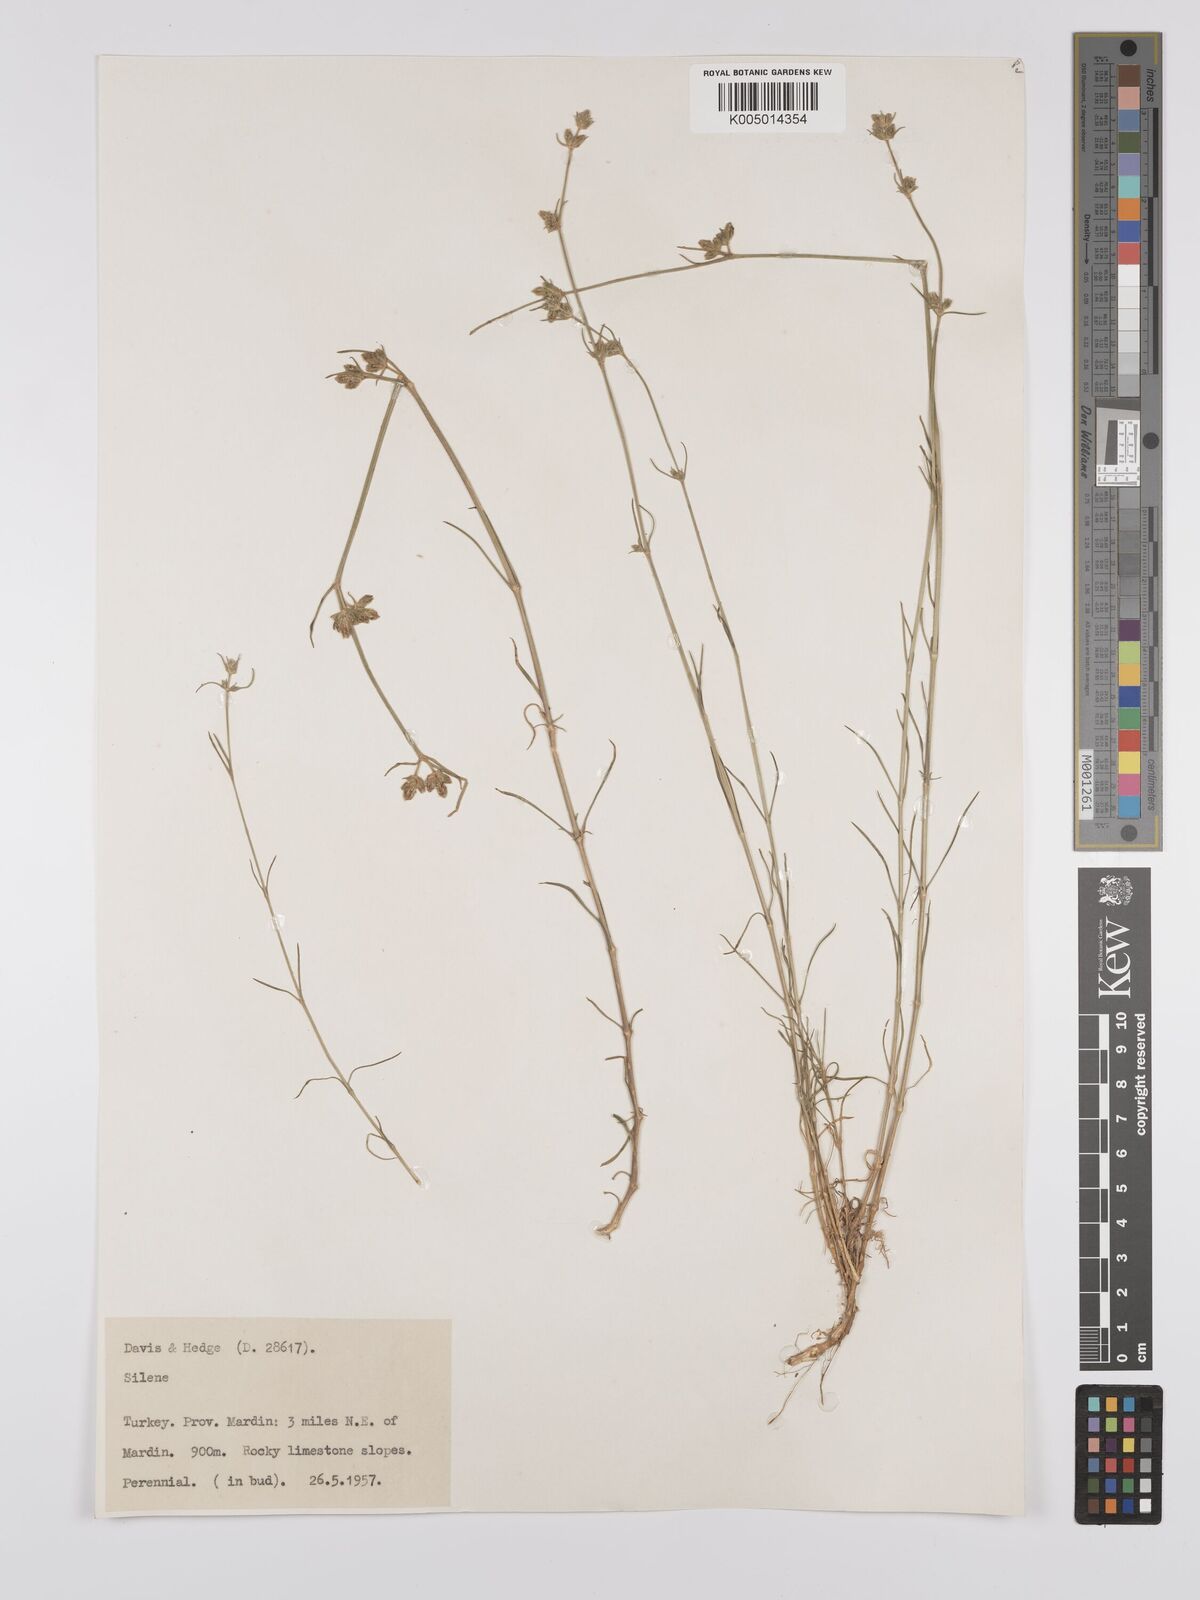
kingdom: Plantae
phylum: Tracheophyta
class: Magnoliopsida
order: Caryophyllales
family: Caryophyllaceae
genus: Silene
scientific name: Silene
